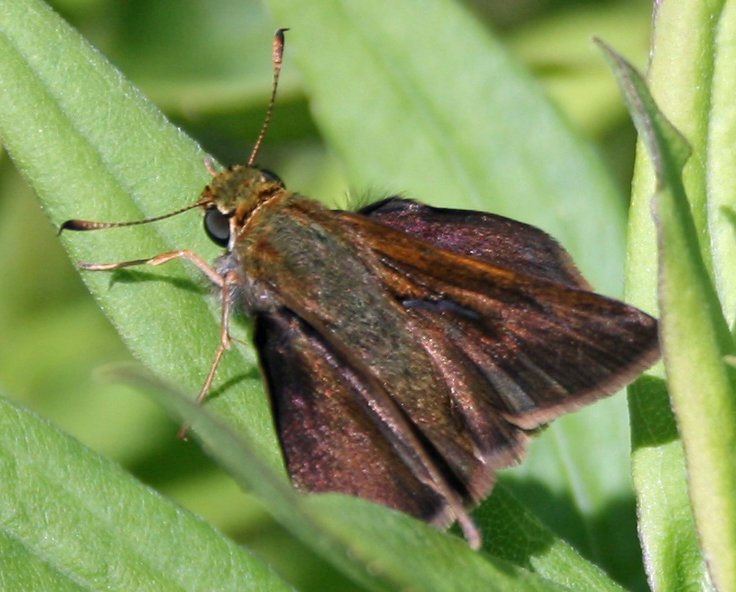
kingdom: Animalia
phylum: Arthropoda
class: Insecta
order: Lepidoptera
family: Hesperiidae
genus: Euphyes
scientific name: Euphyes vestris
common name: Dun Skipper
